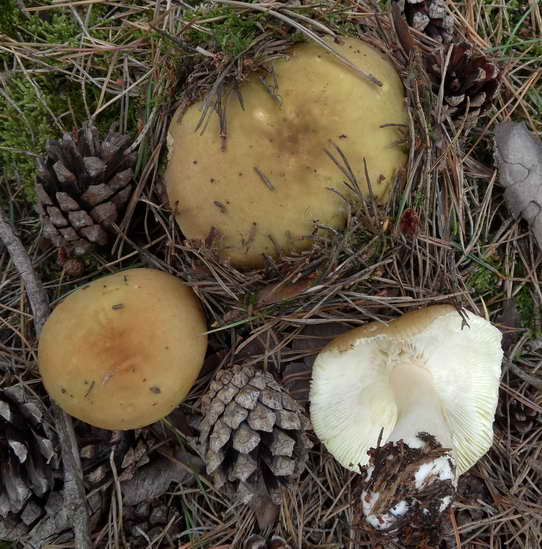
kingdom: Fungi
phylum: Basidiomycota
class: Agaricomycetes
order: Russulales
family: Russulaceae
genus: Russula
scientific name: Russula clavipes
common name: olivengrøn skørhat
